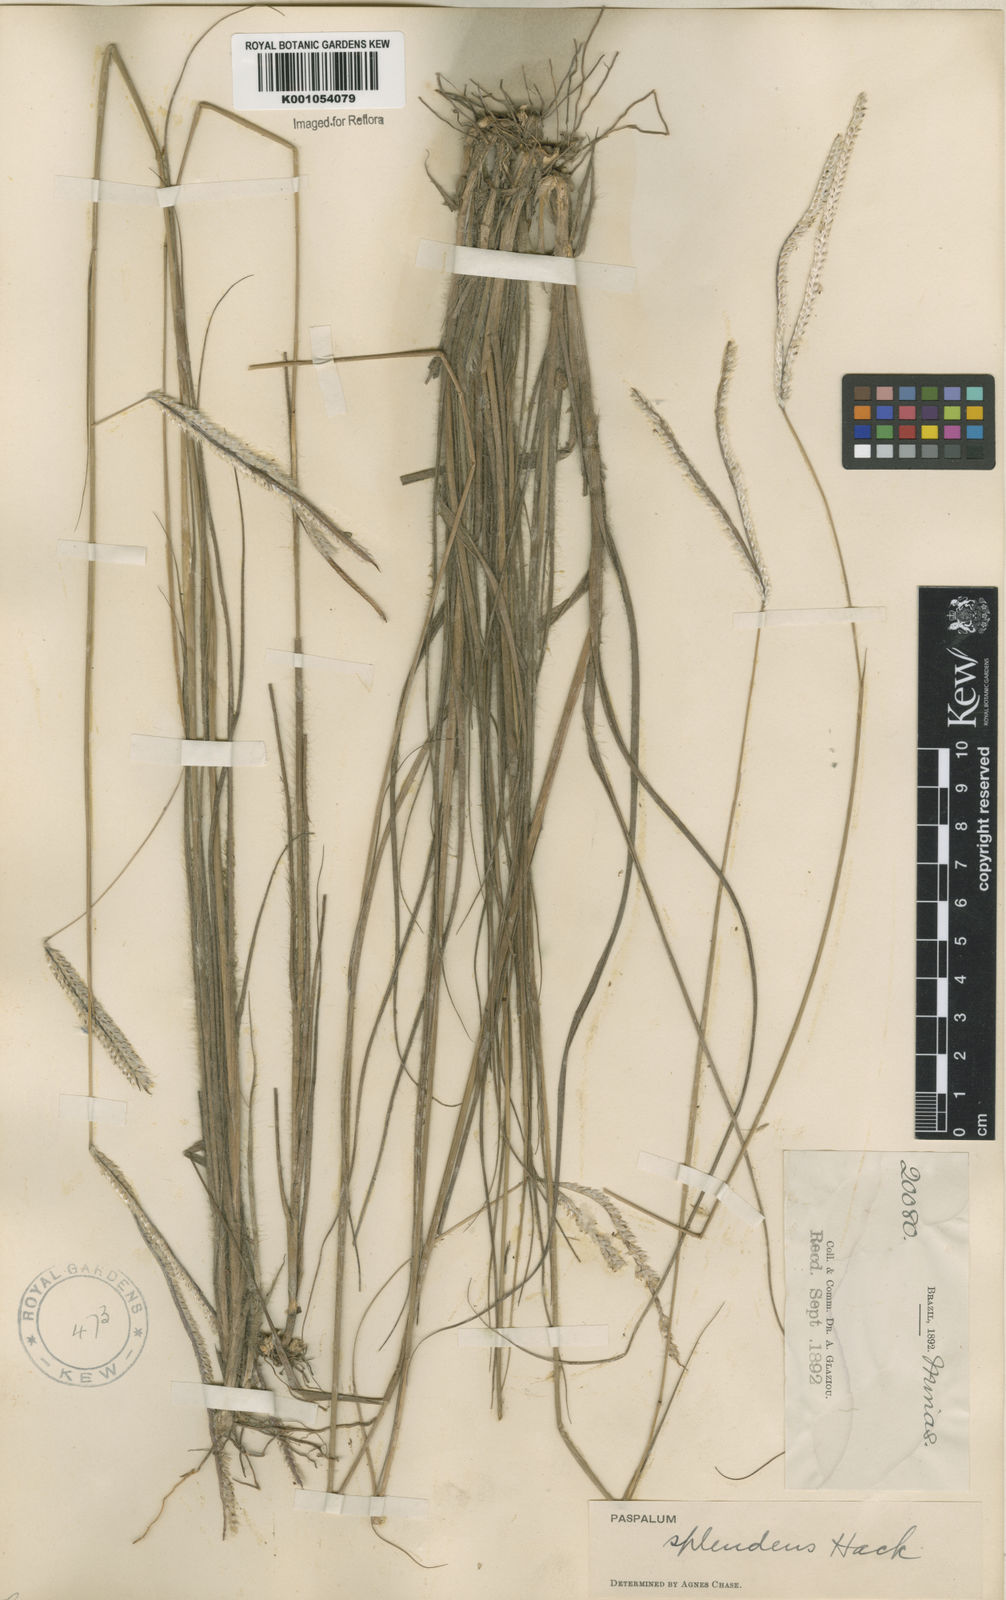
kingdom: Plantae
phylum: Tracheophyta
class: Liliopsida
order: Poales
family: Poaceae
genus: Paspalum
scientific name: Paspalum eucomum
